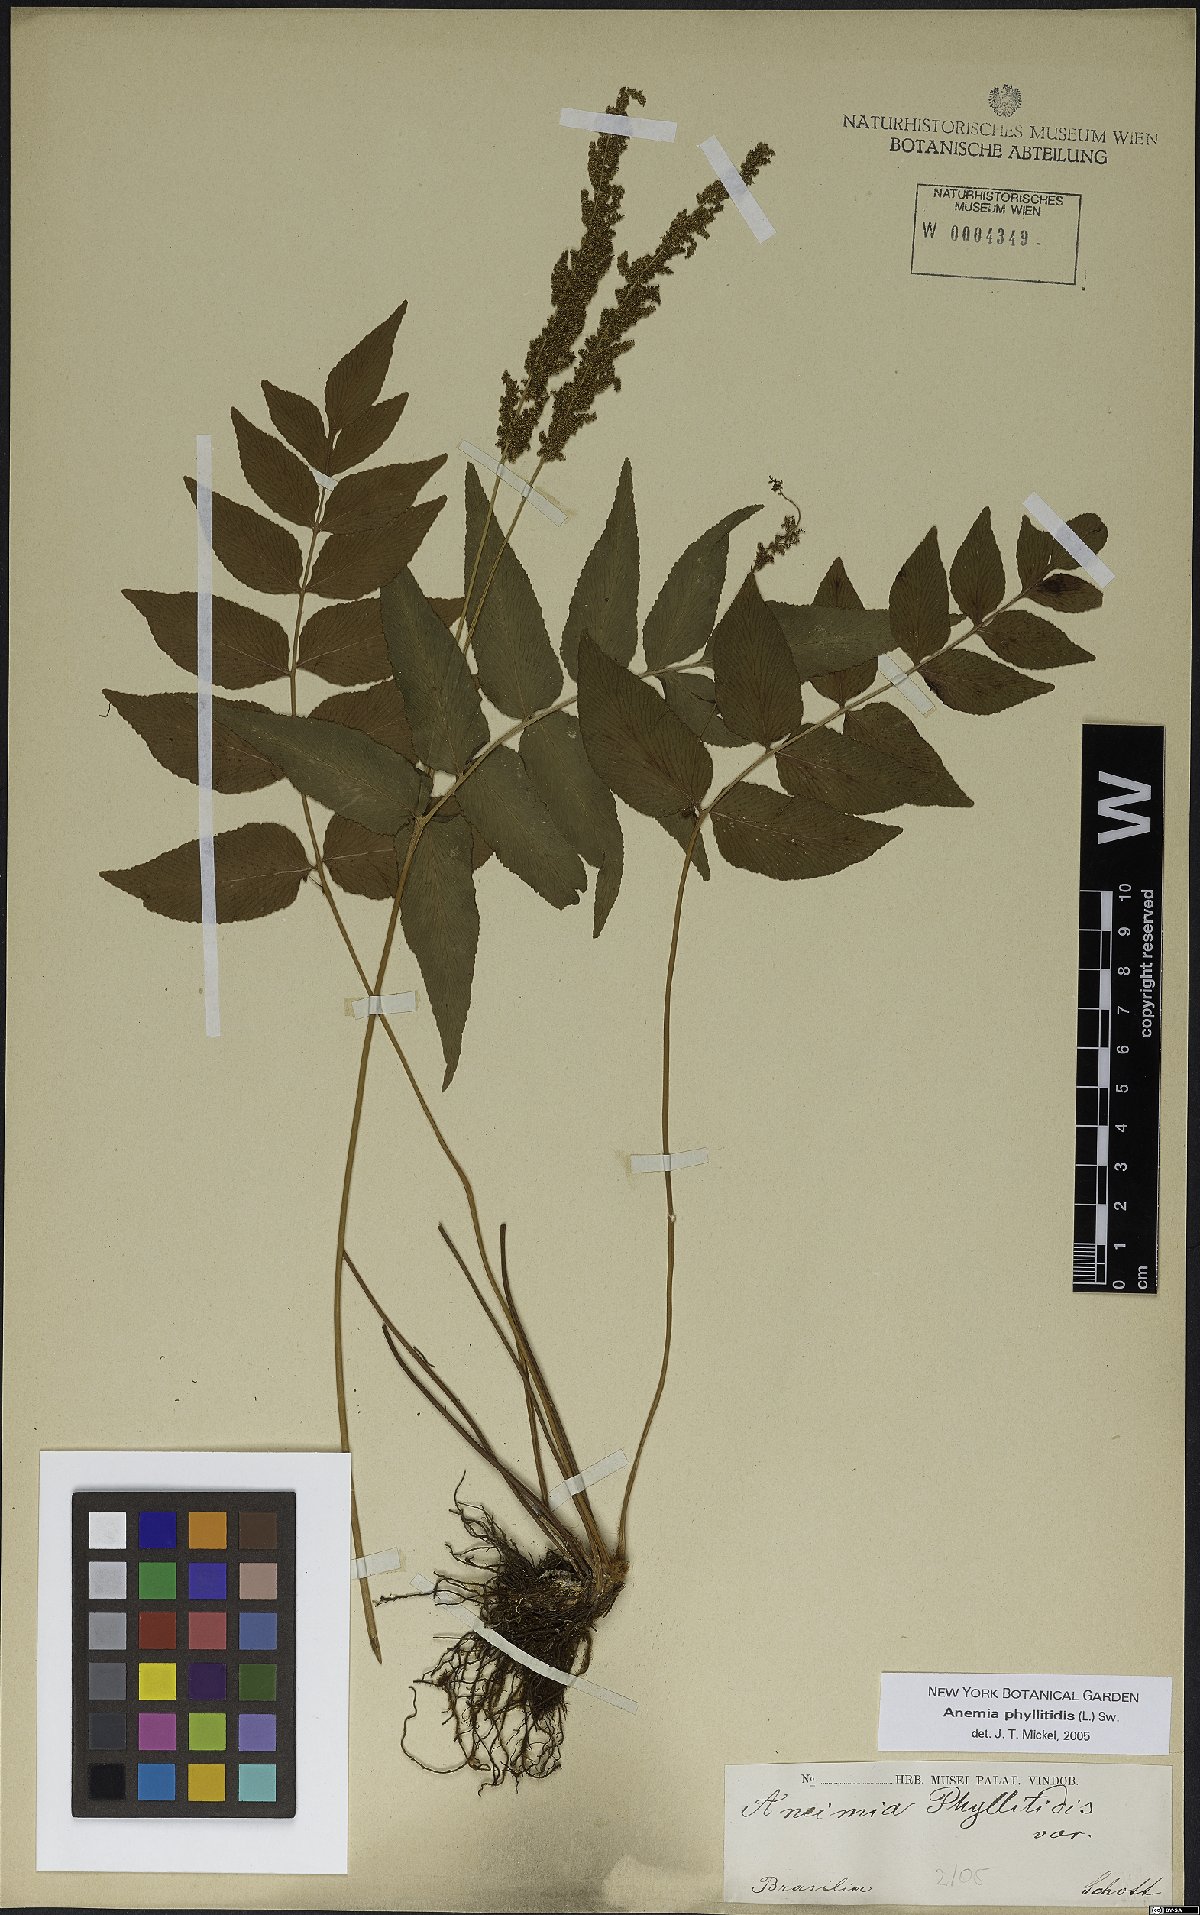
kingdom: Plantae
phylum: Tracheophyta
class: Polypodiopsida
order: Schizaeales
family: Anemiaceae
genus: Anemia
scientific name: Anemia phyllitidis
